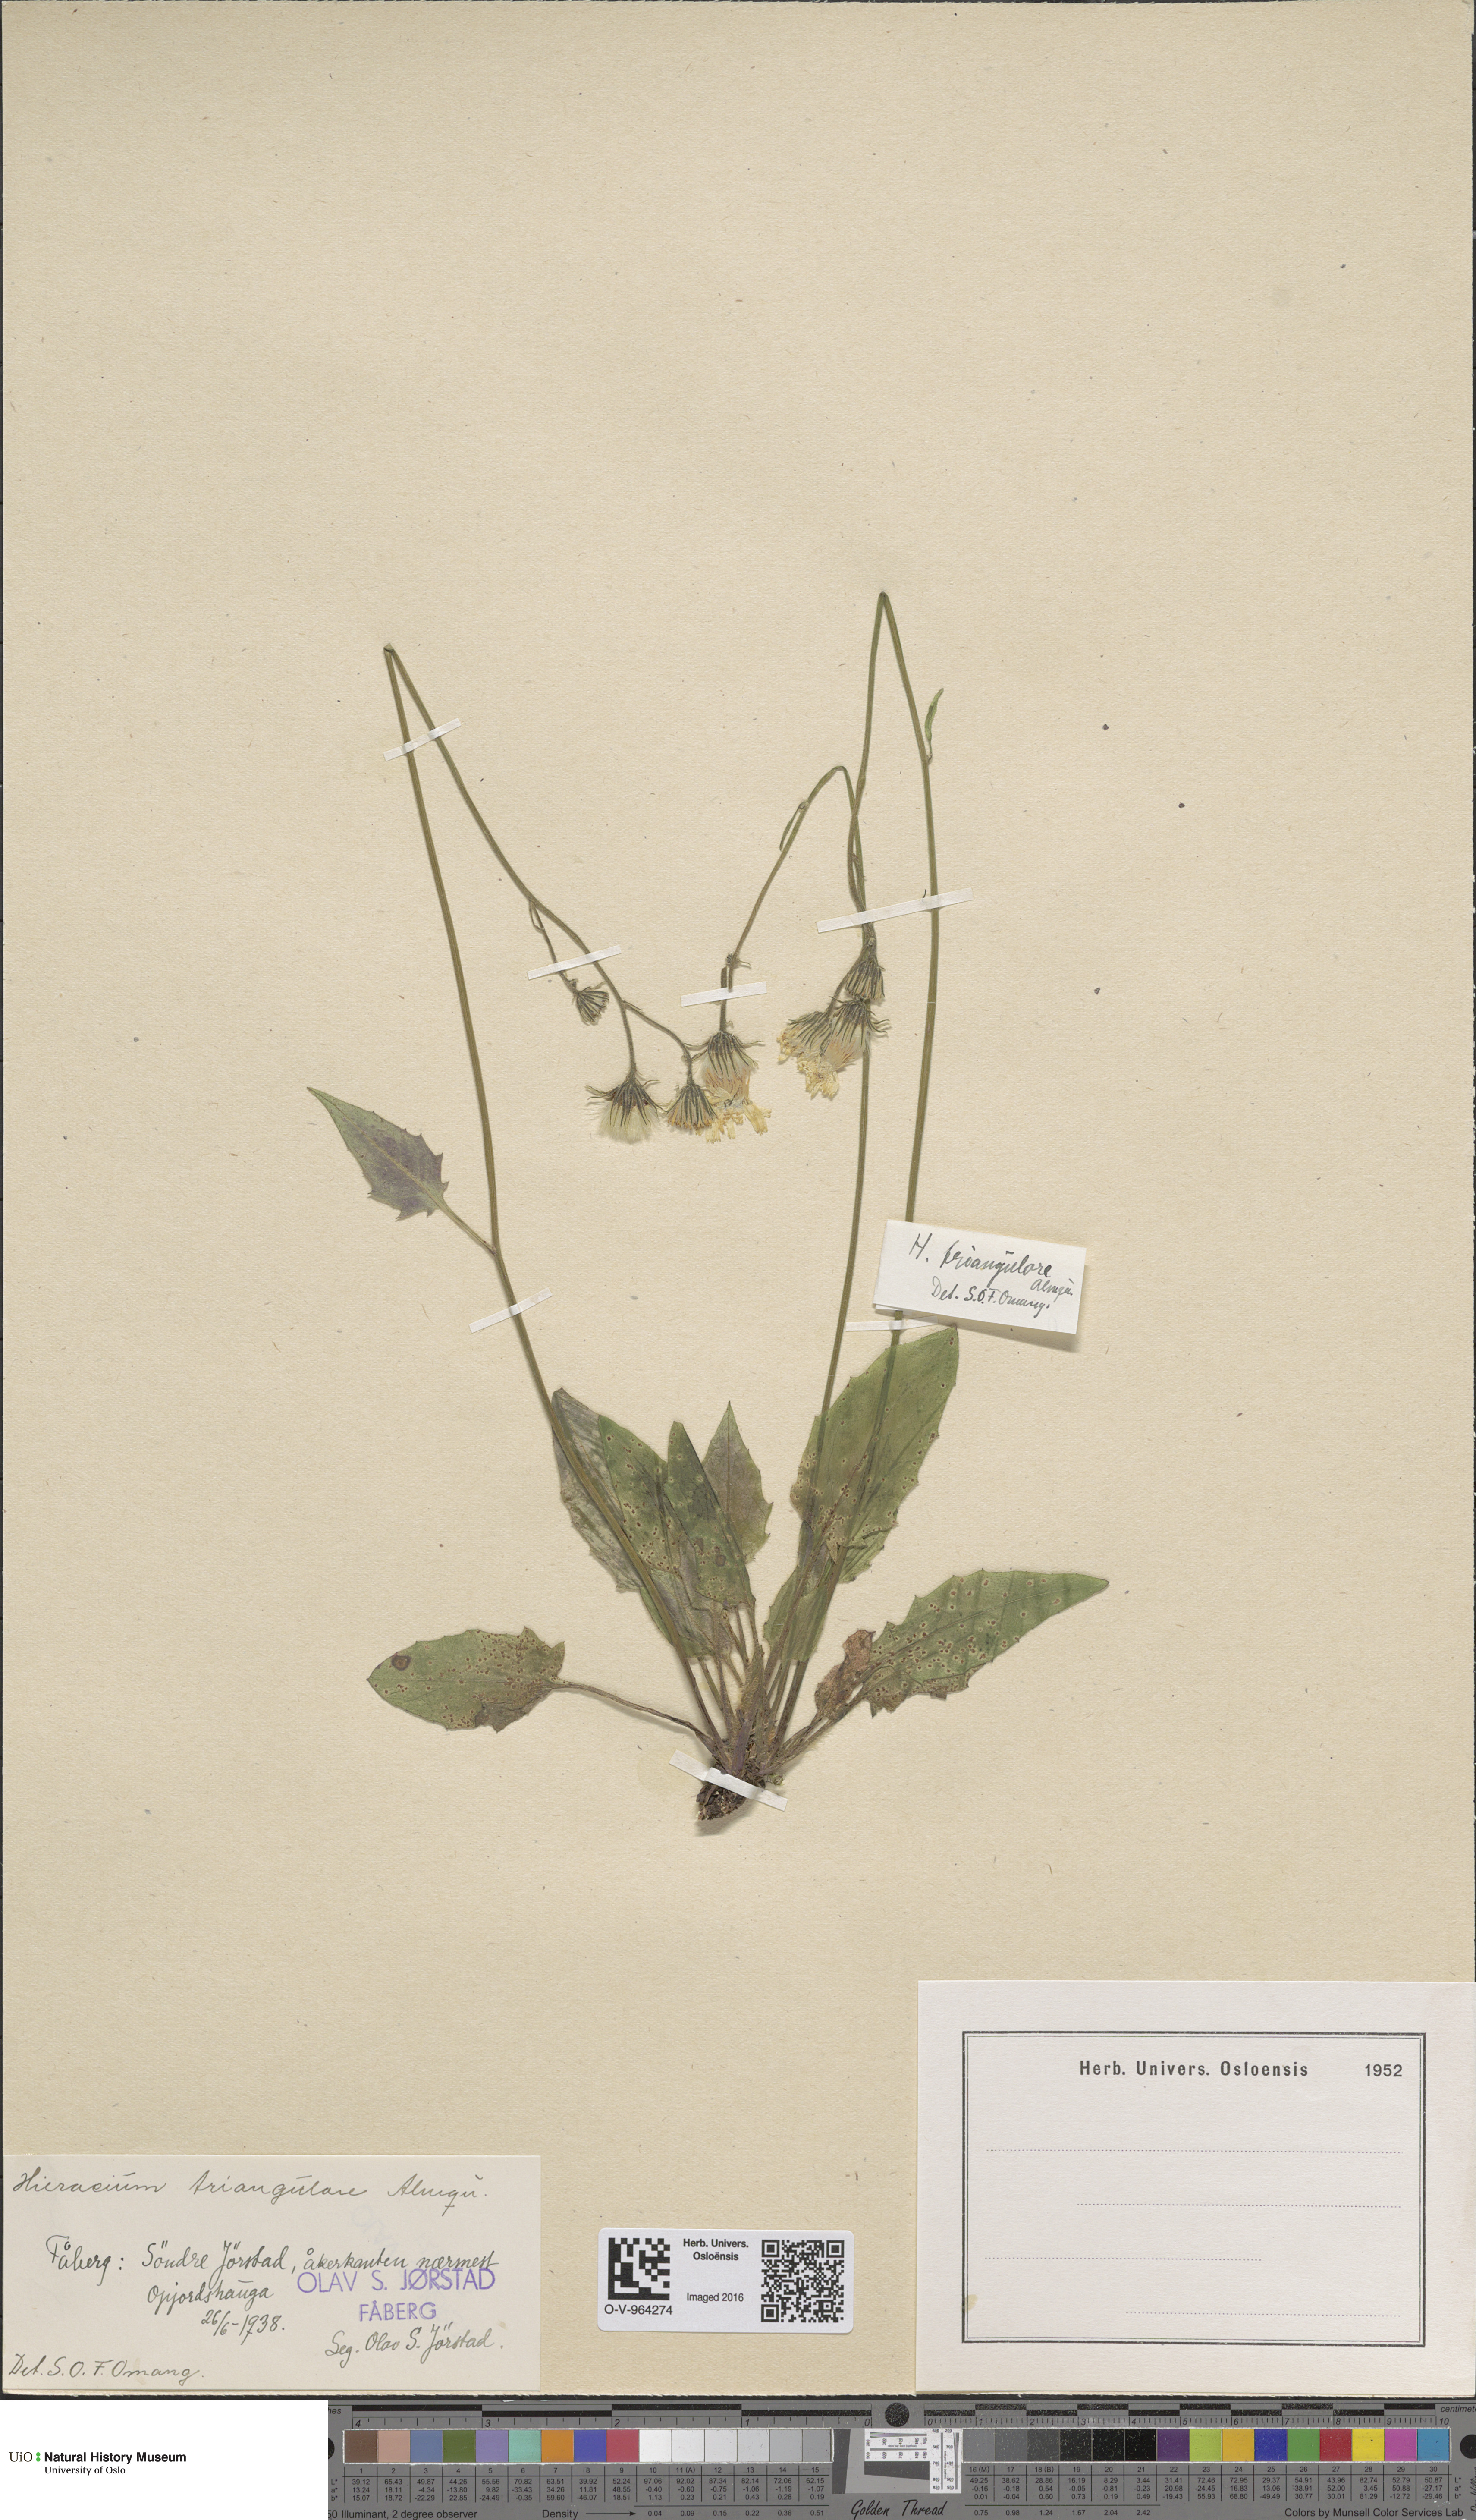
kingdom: Plantae
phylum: Tracheophyta
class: Magnoliopsida
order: Asterales
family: Asteraceae
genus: Hieracium
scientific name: Hieracium triangulare
